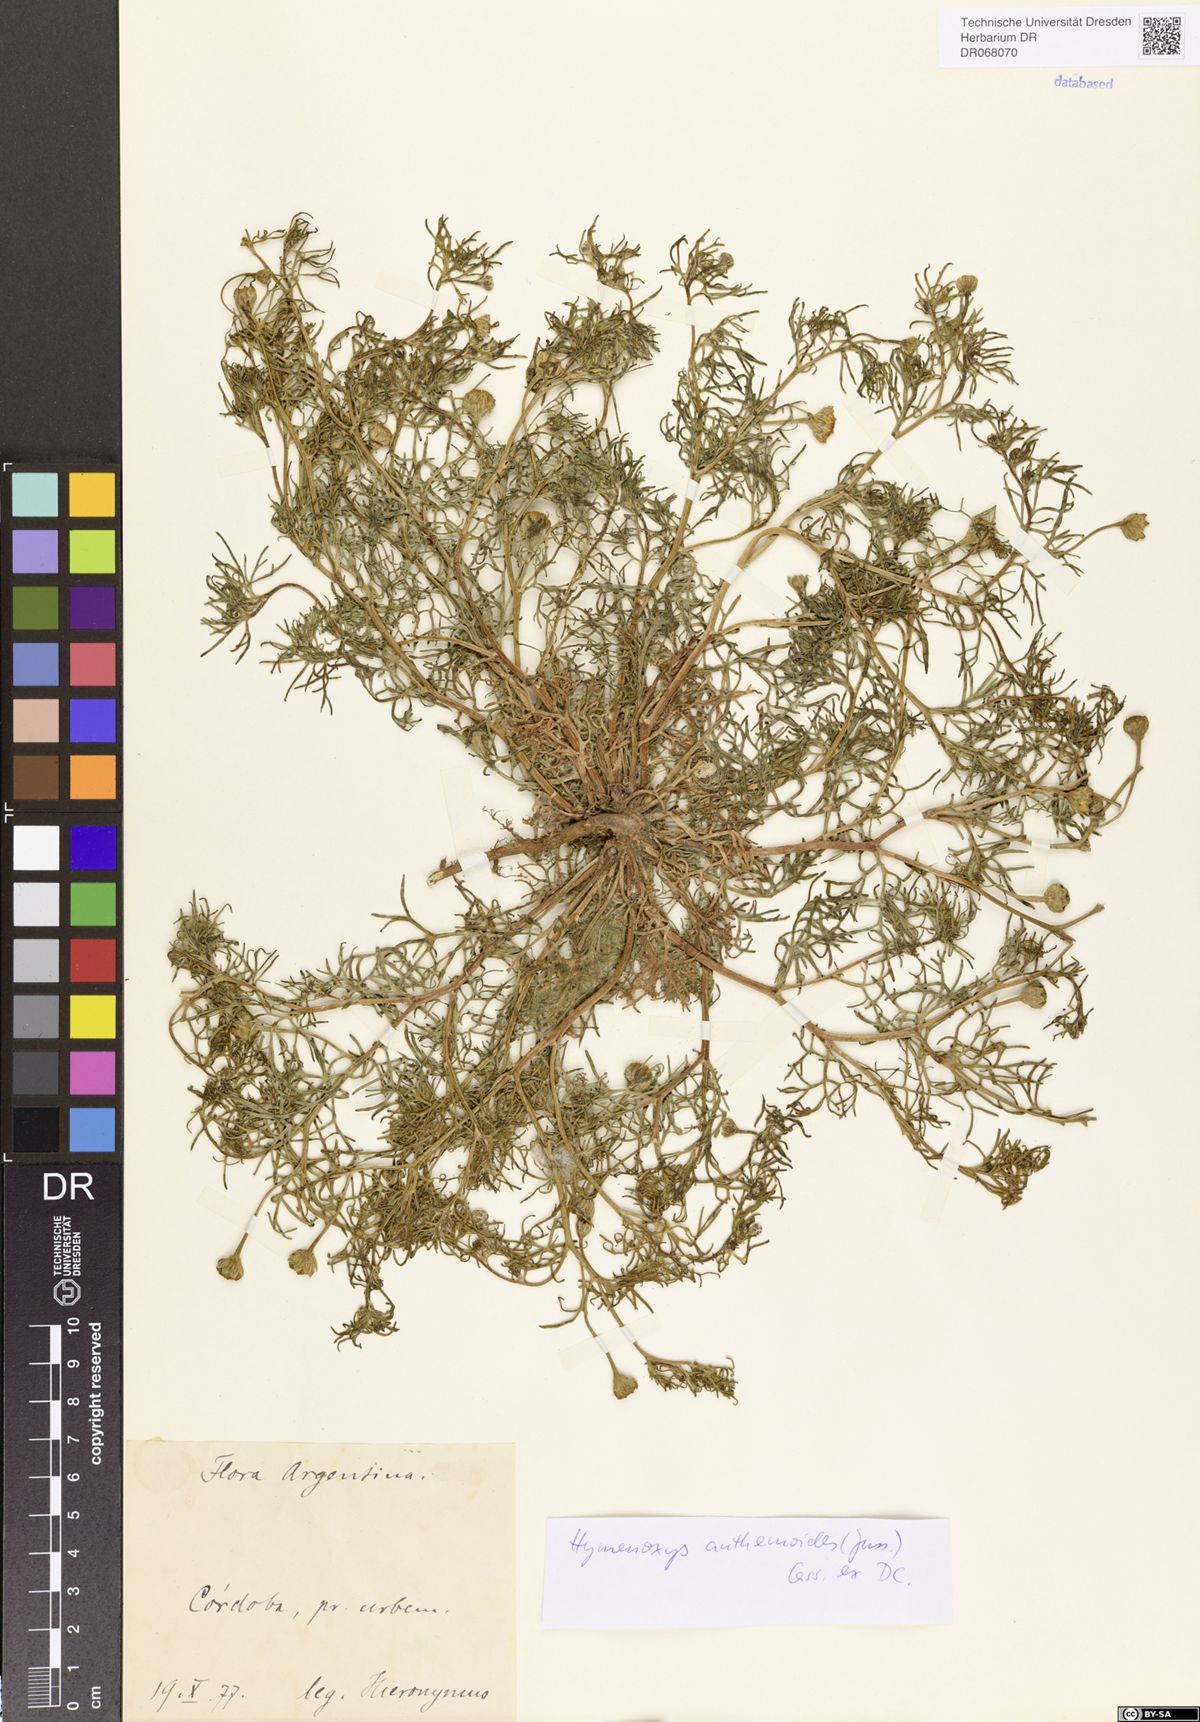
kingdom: Plantae
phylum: Tracheophyta
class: Magnoliopsida
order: Asterales
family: Asteraceae
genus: Hymenoxys
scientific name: Hymenoxys anthemoides
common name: South american rubberweed
